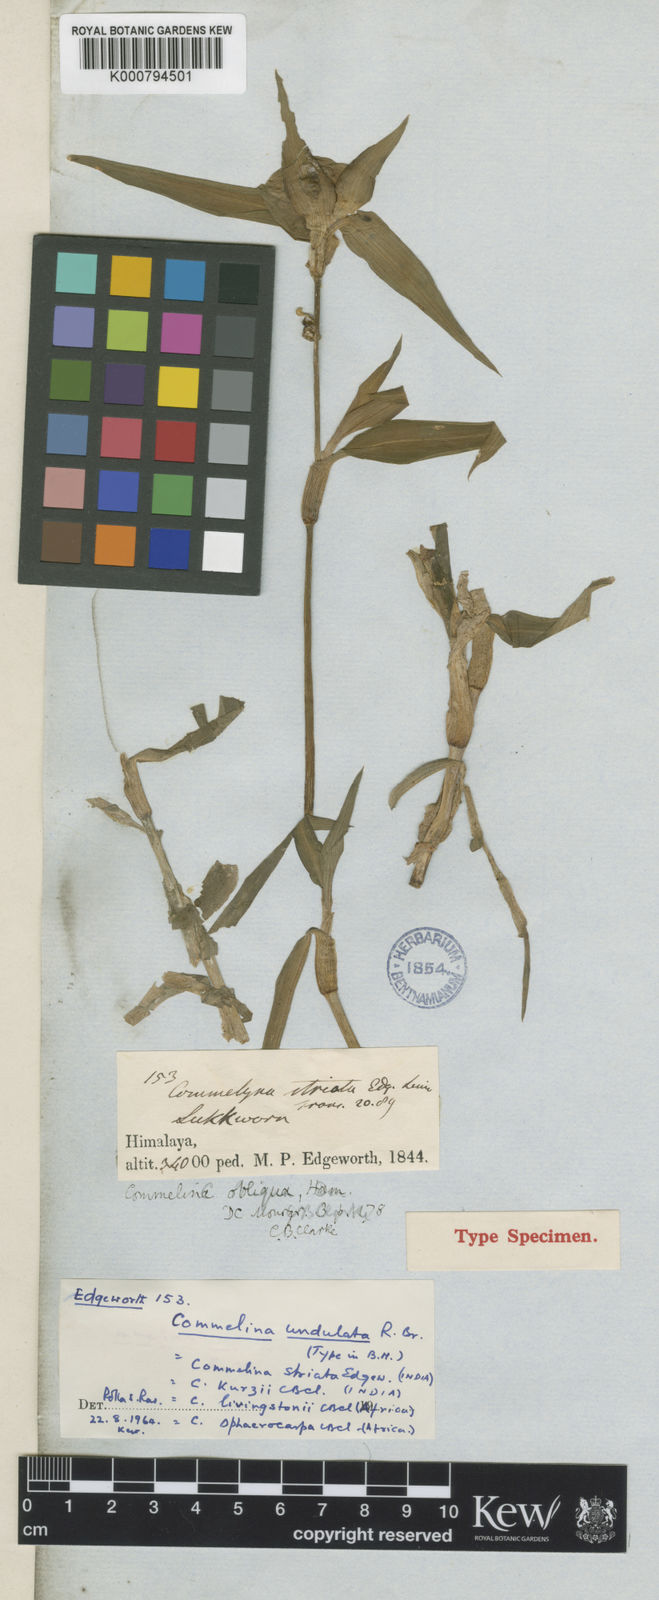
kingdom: Plantae
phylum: Tracheophyta
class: Liliopsida
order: Commelinales
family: Commelinaceae
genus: Commelina
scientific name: Commelina undulata
